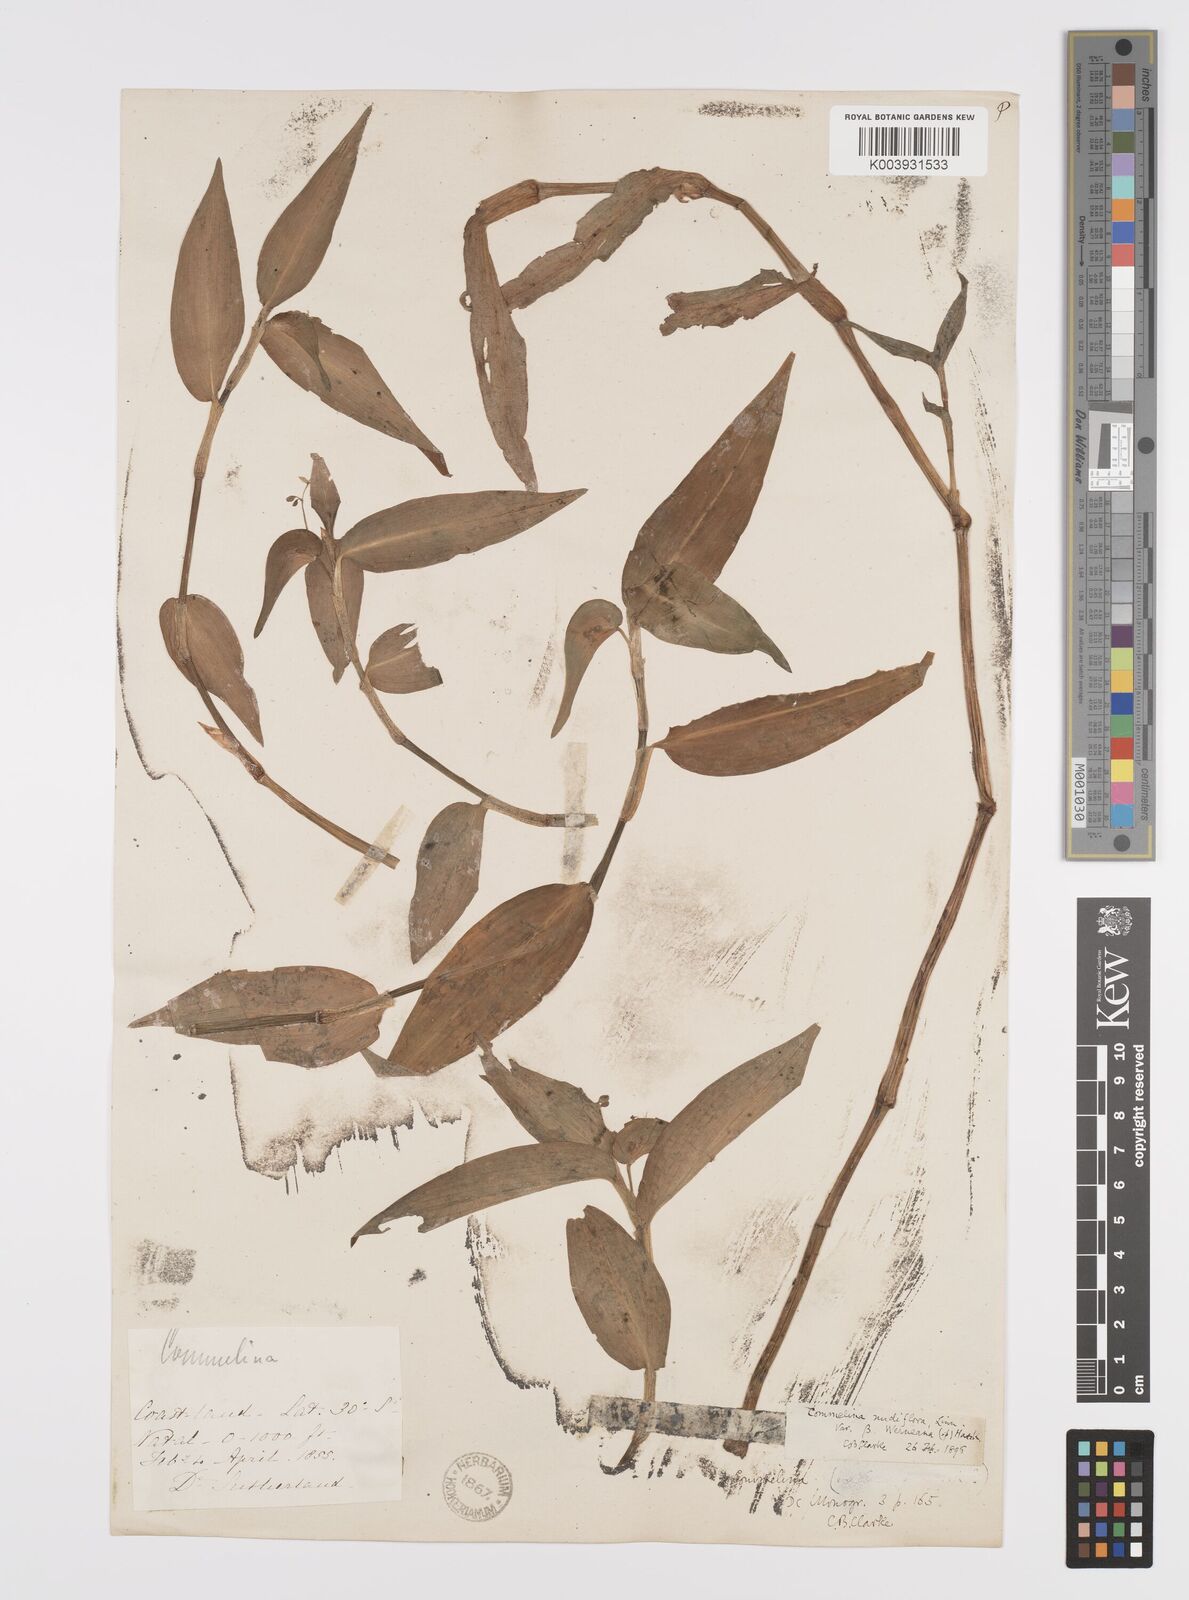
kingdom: Plantae
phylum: Tracheophyta
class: Liliopsida
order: Commelinales
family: Commelinaceae
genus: Commelina
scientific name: Commelina diffusa
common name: Climbing dayflower
